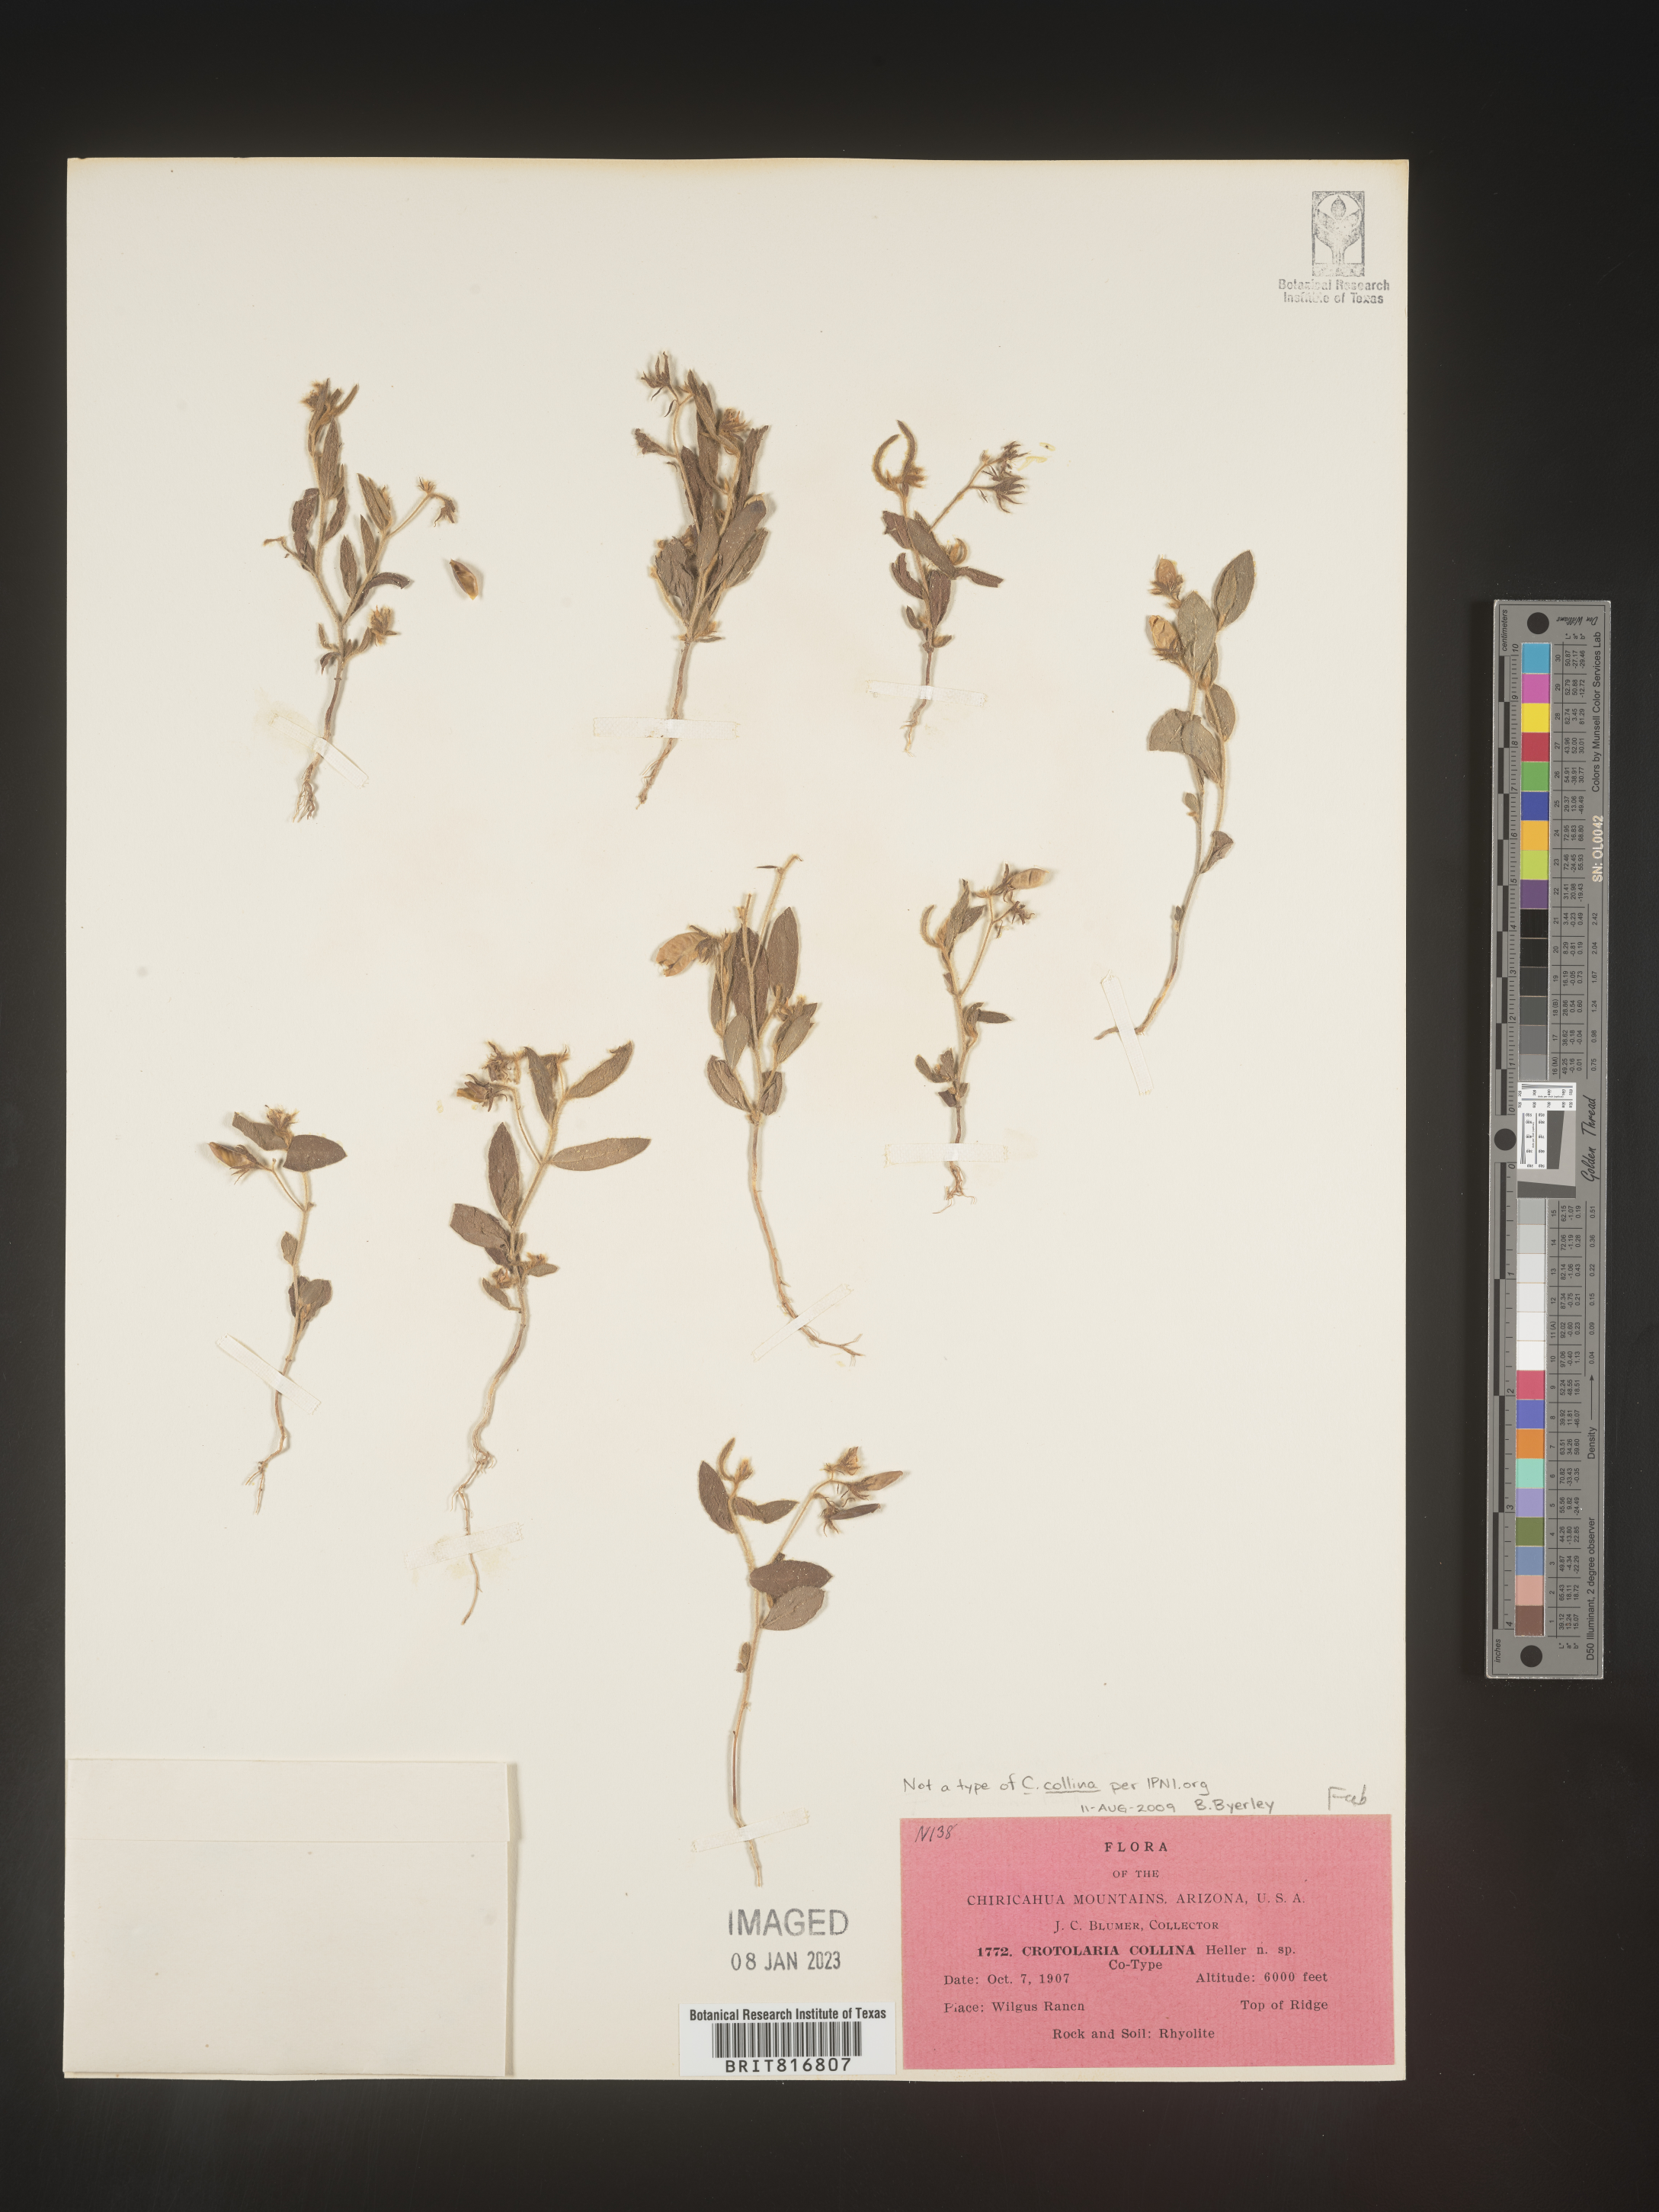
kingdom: Plantae
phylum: Tracheophyta
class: Magnoliopsida
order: Fabales
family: Fabaceae
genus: Crotalaria
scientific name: Crotalaria
